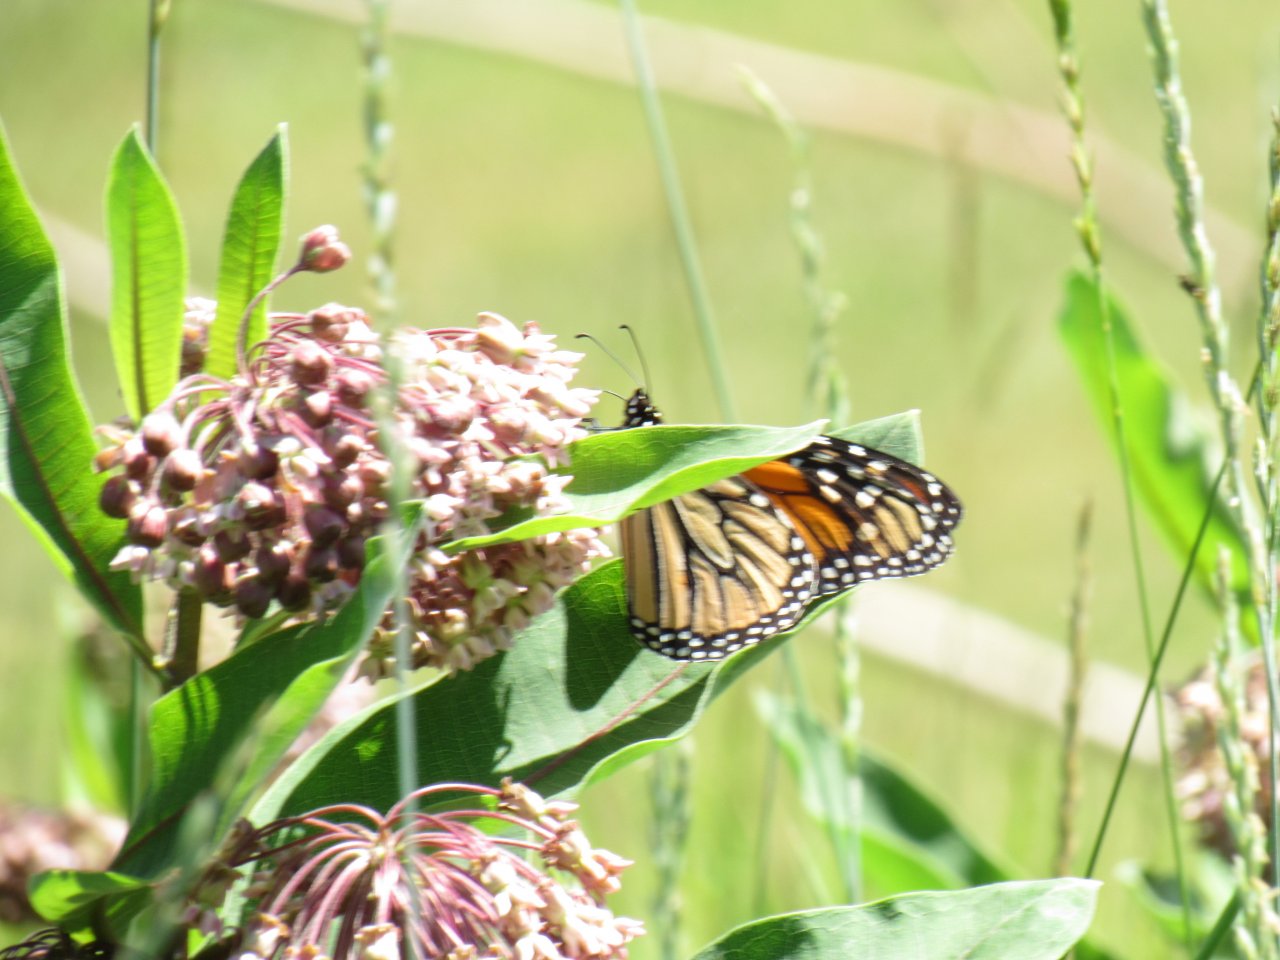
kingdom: Animalia
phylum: Arthropoda
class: Insecta
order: Lepidoptera
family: Nymphalidae
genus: Danaus
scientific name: Danaus plexippus
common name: Monarch
